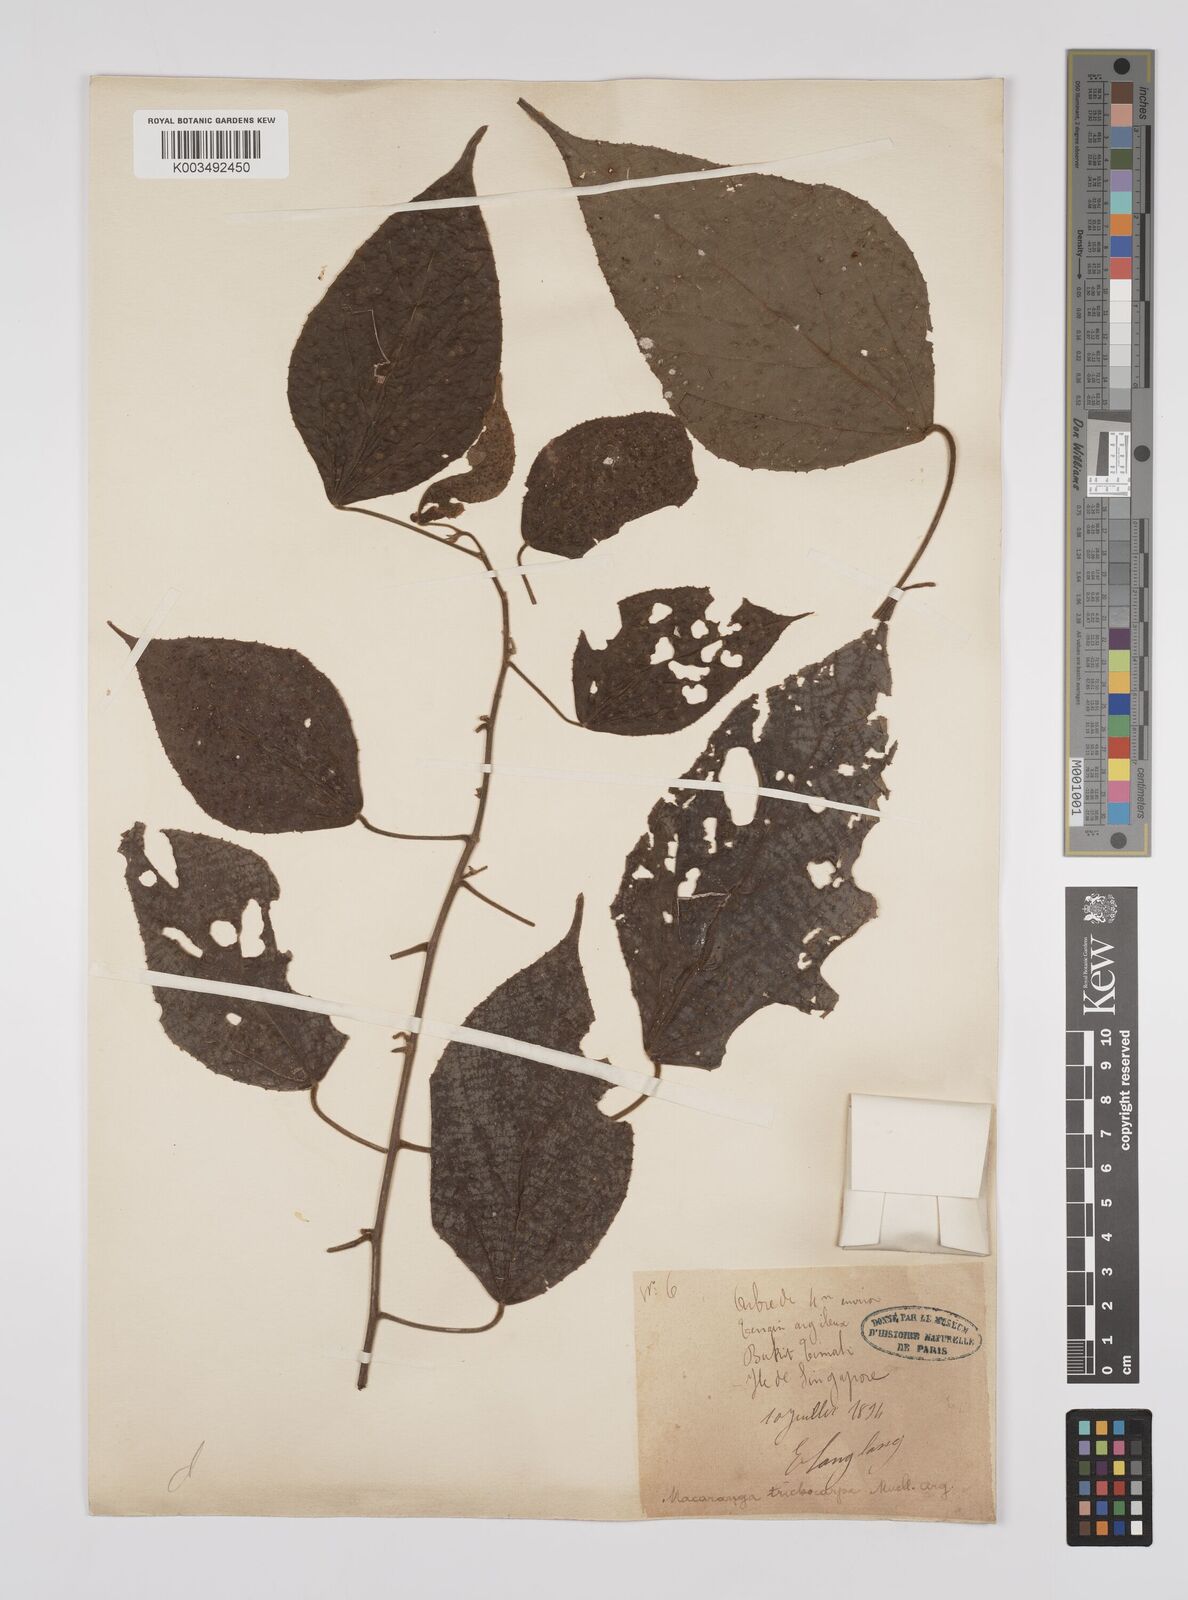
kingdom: Plantae
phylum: Tracheophyta
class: Magnoliopsida
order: Malpighiales
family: Euphorbiaceae
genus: Macaranga
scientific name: Macaranga trichocarpa
